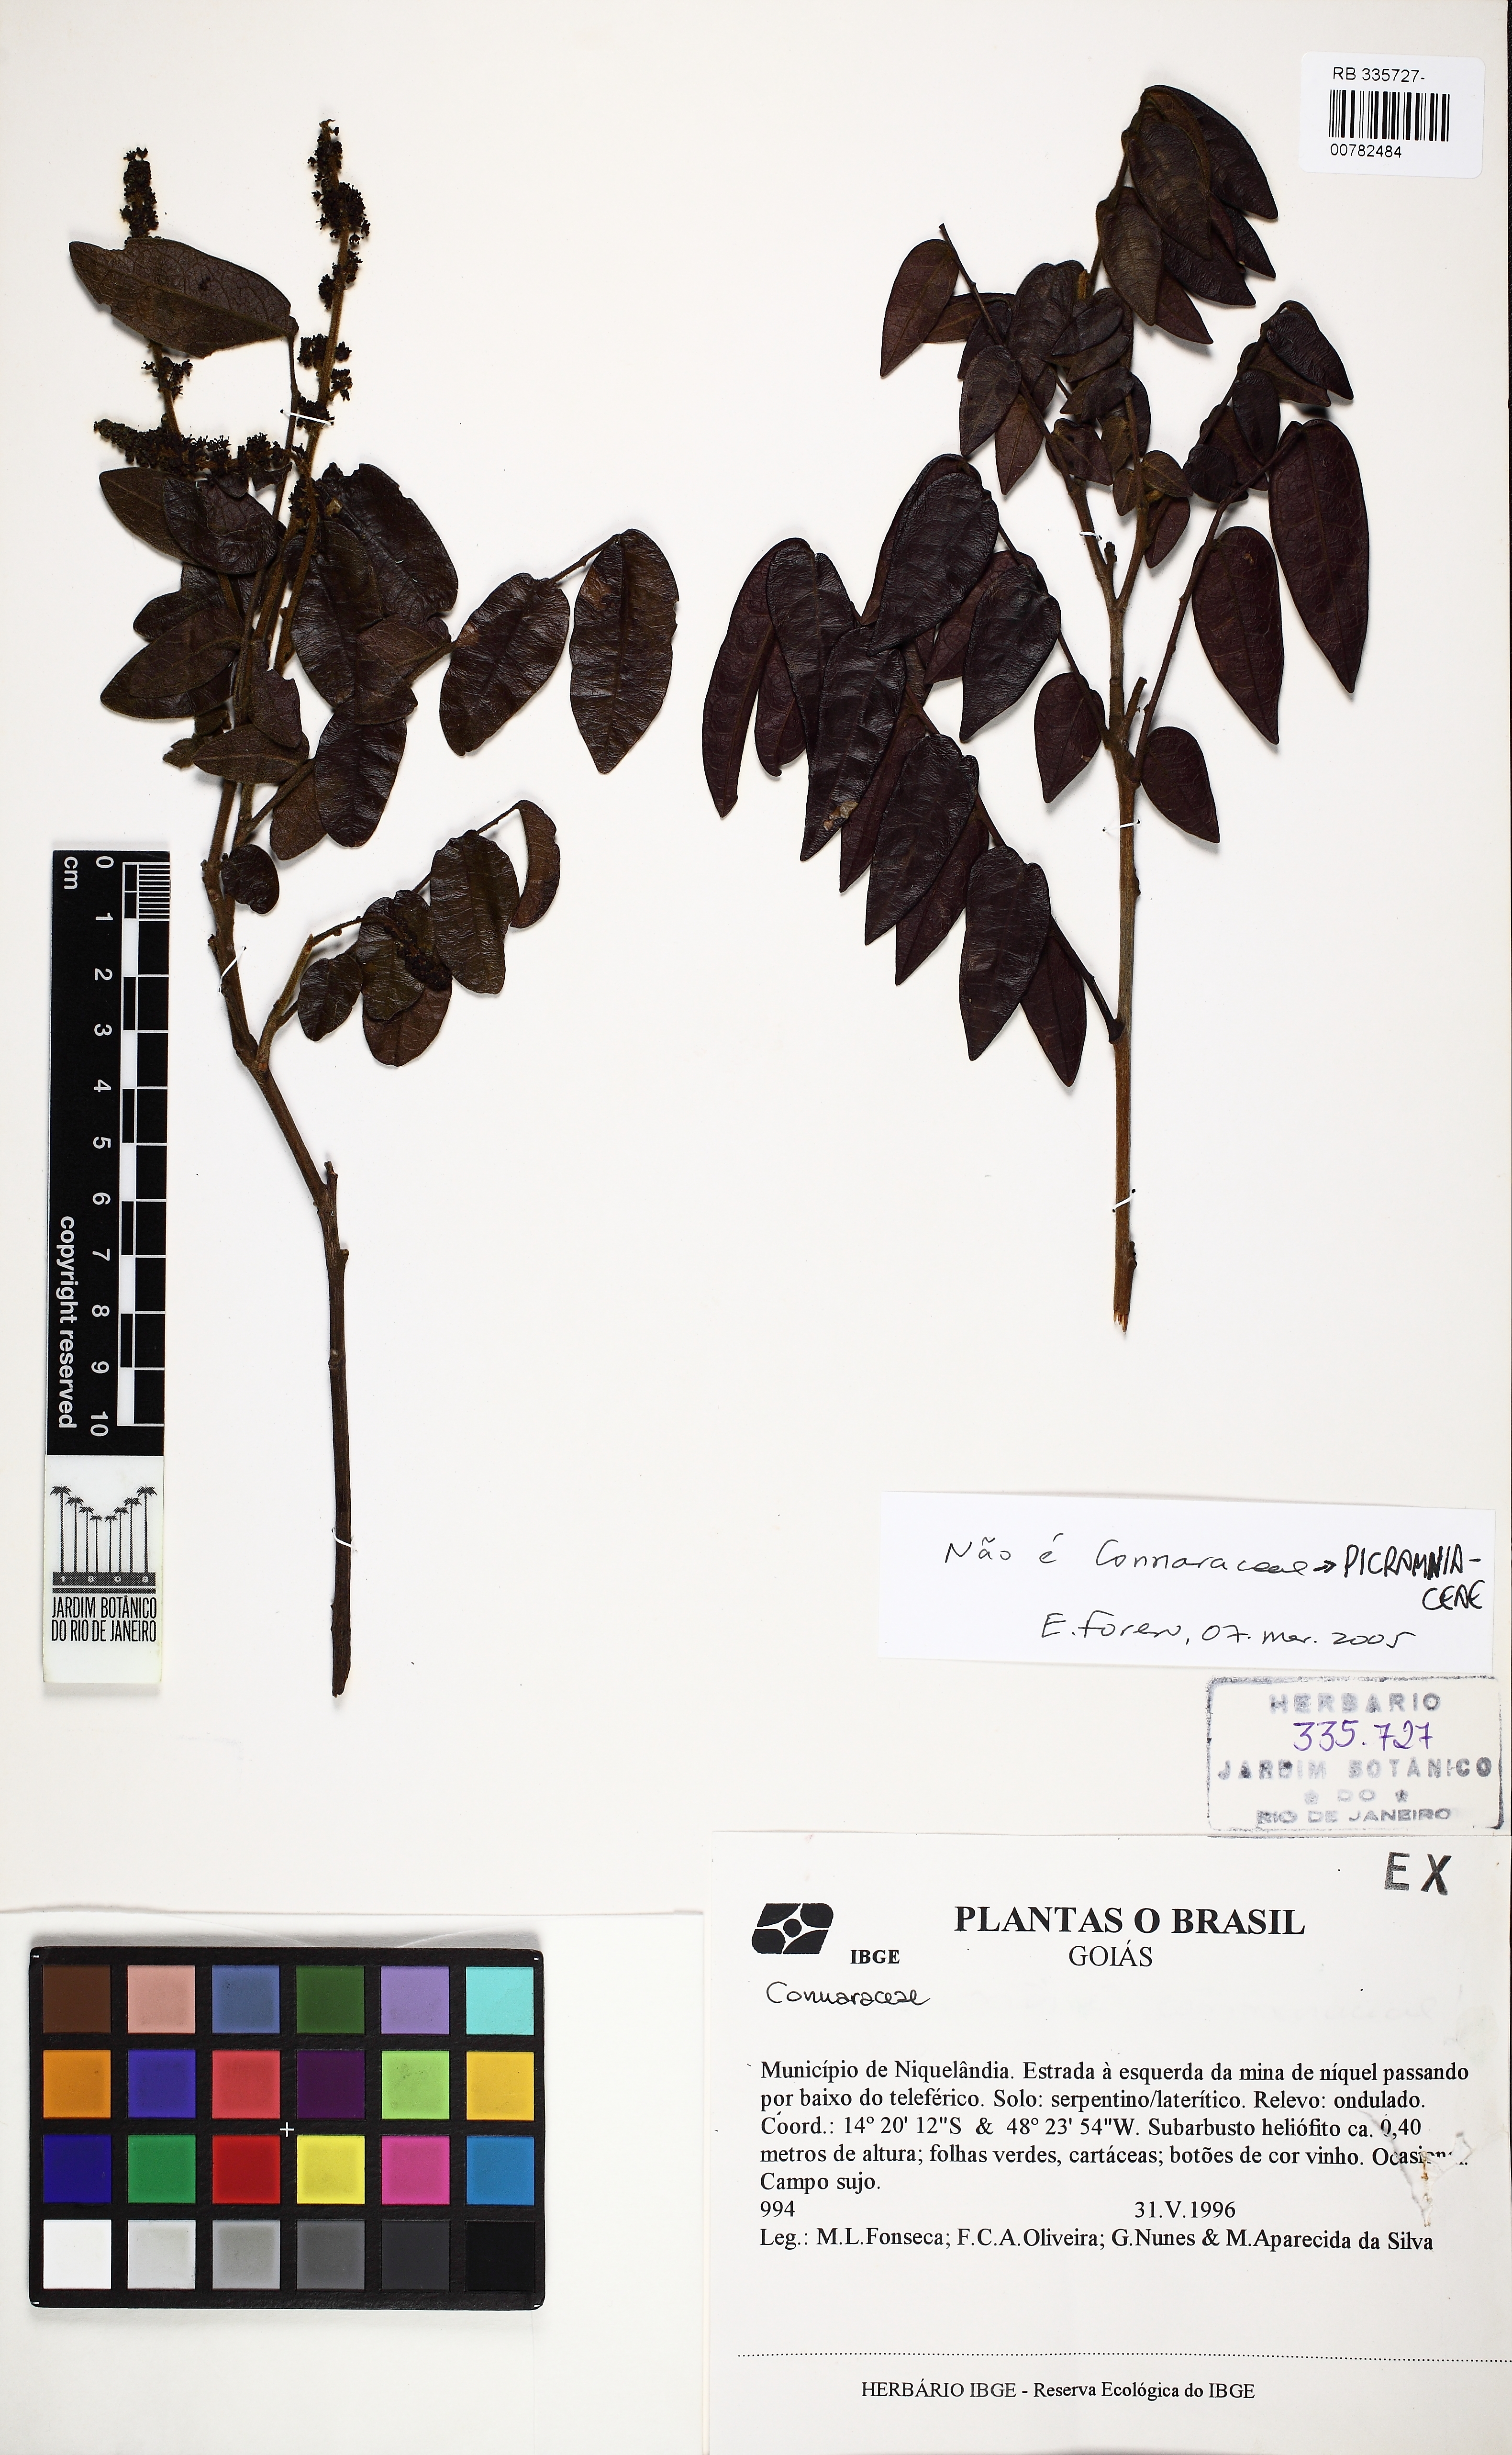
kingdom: Plantae
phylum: Tracheophyta
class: Magnoliopsida
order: Picramniales
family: Picramniaceae
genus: Picramnia
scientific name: Picramnia oreadica
